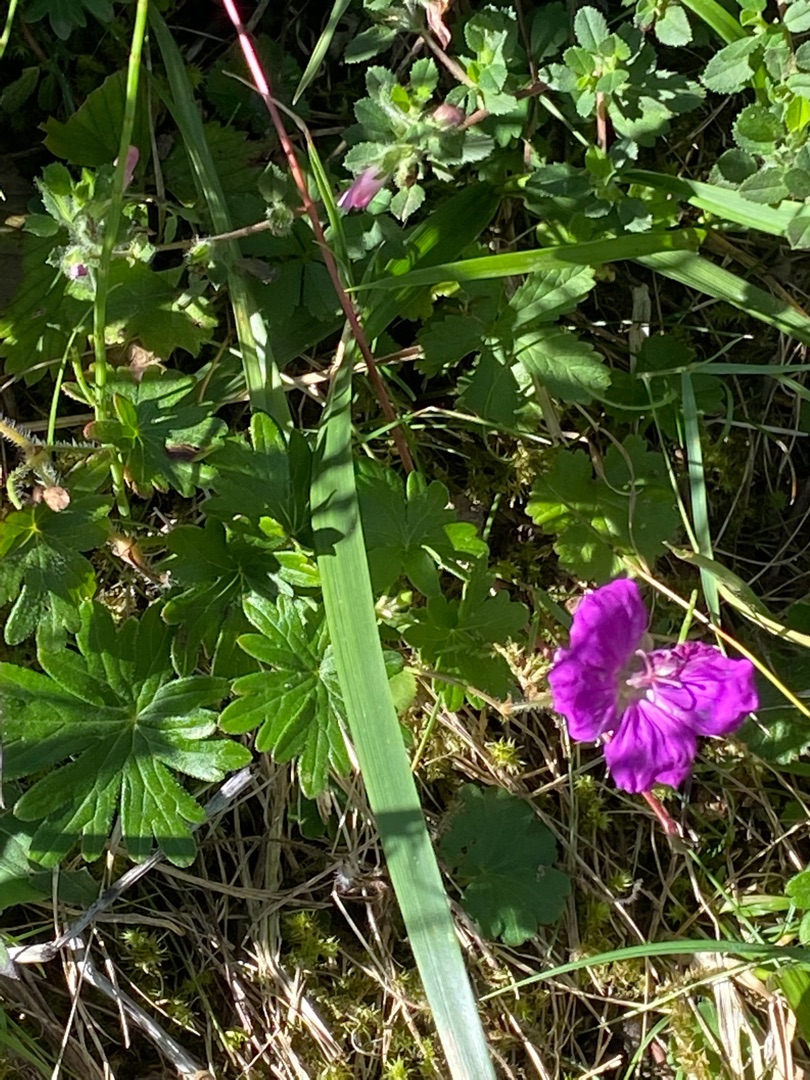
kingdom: Plantae
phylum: Tracheophyta
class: Magnoliopsida
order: Geraniales
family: Geraniaceae
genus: Geranium
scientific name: Geranium sanguineum
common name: Blodrød storkenæb
